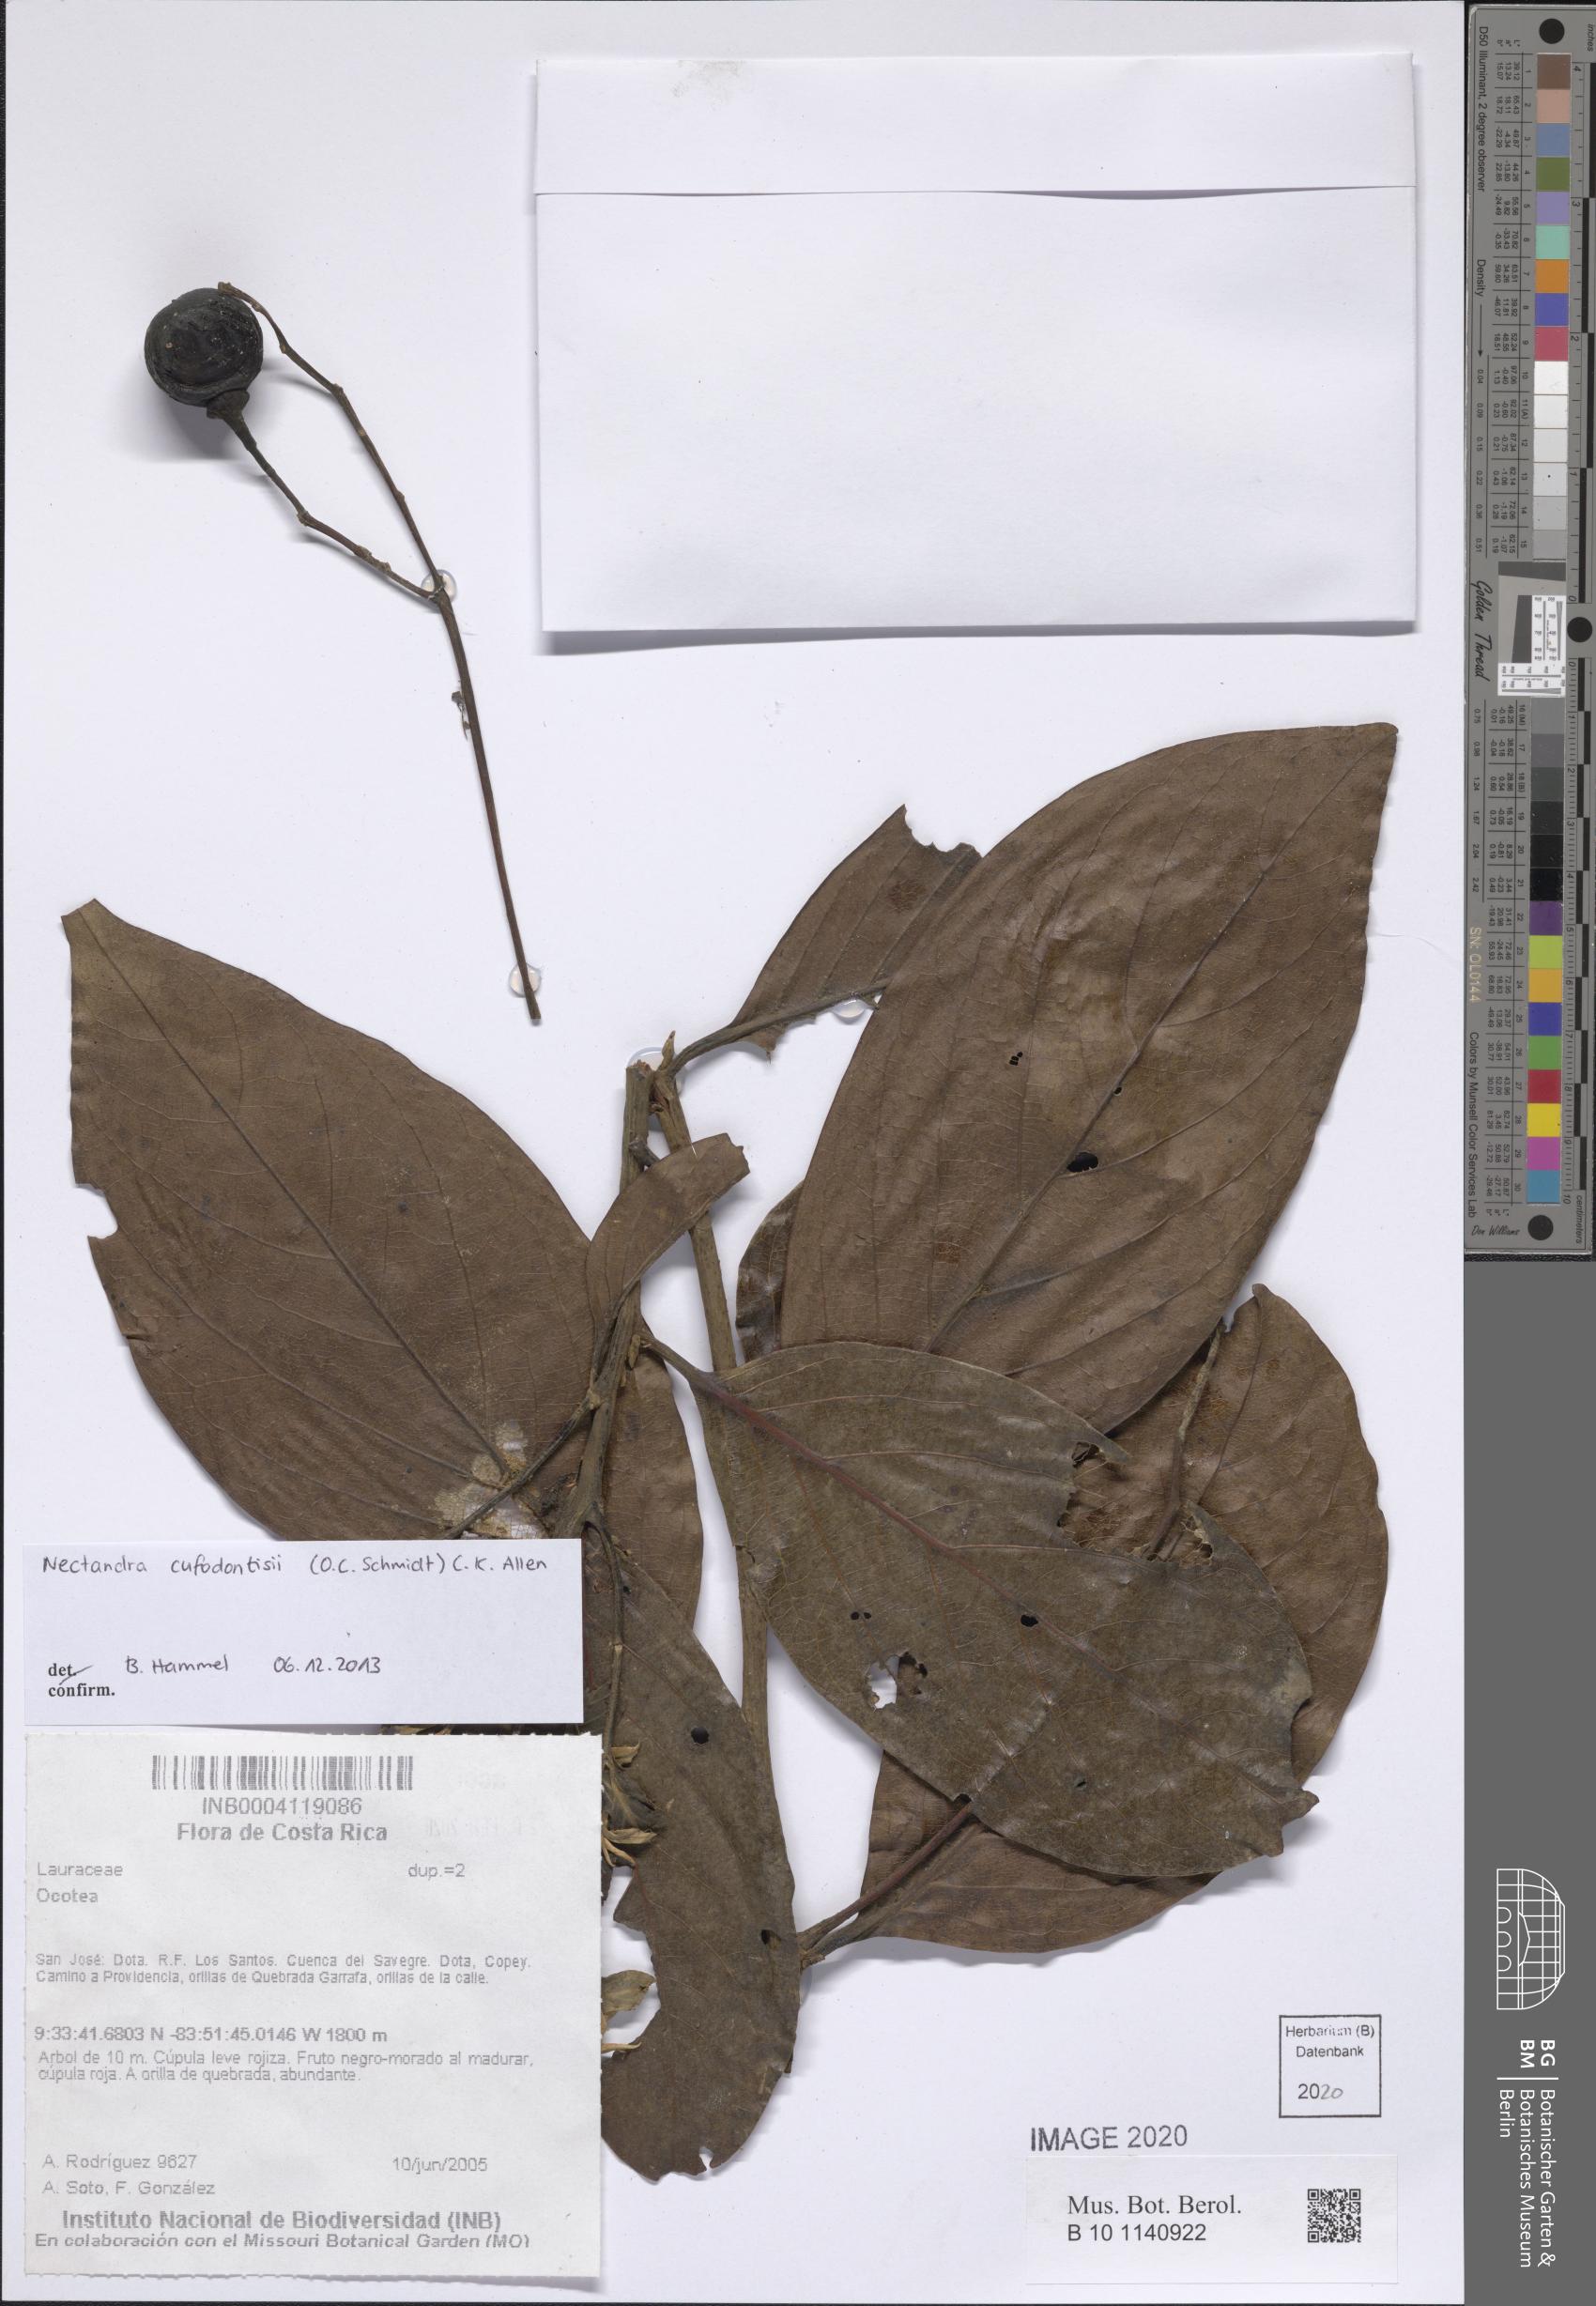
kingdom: Plantae
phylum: Tracheophyta
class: Magnoliopsida
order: Laurales
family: Lauraceae
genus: Damburneya
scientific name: Damburneya cufodontisii
